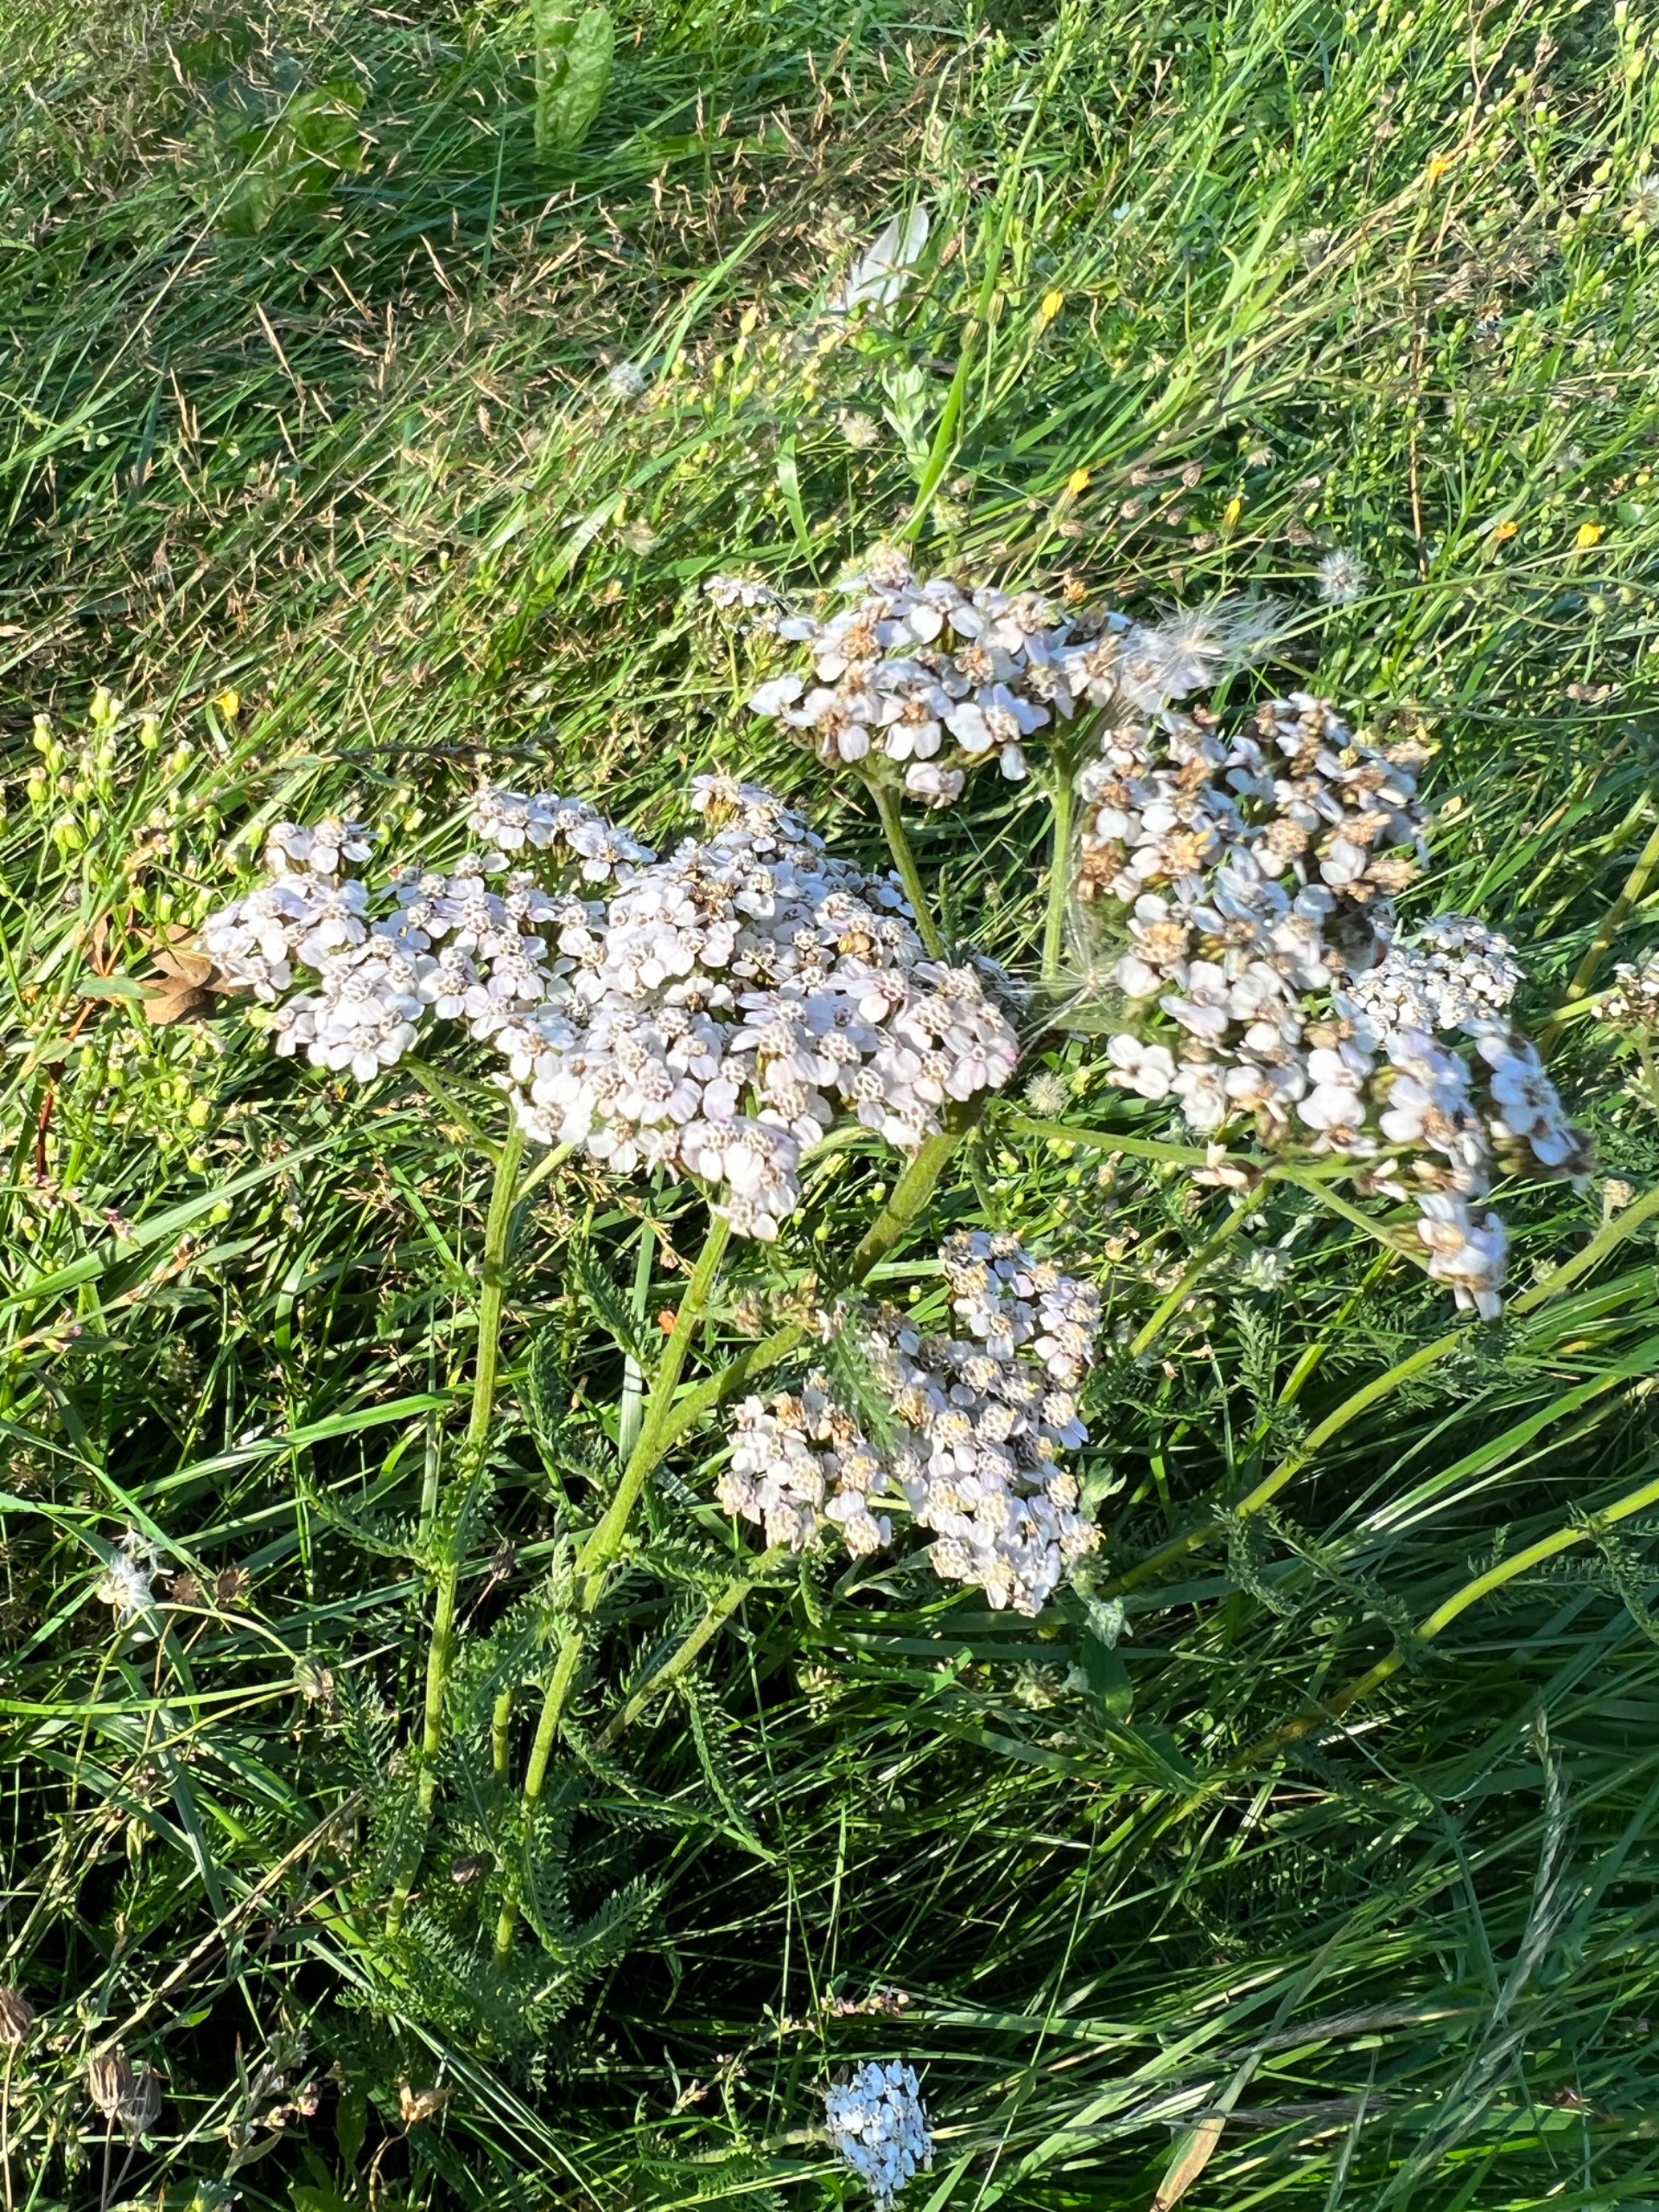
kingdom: Plantae
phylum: Tracheophyta
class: Magnoliopsida
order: Asterales
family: Asteraceae
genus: Achillea
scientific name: Achillea millefolium
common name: Almindelig røllike
